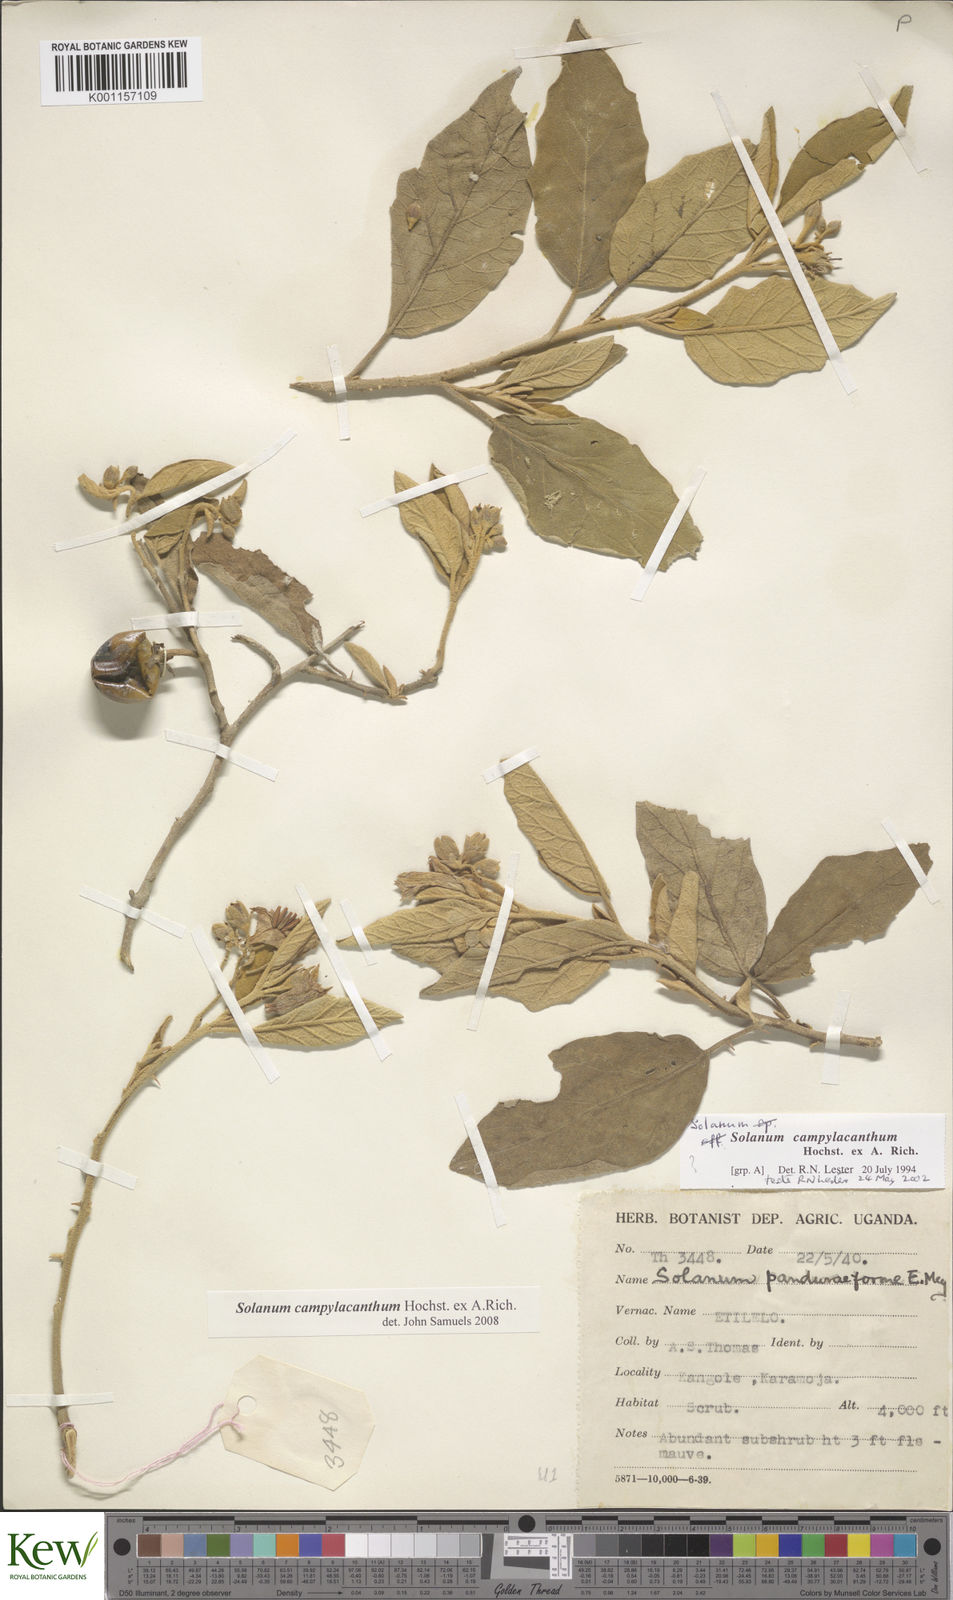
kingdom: Plantae
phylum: Tracheophyta
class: Magnoliopsida
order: Solanales
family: Solanaceae
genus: Solanum
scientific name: Solanum campylacanthum
